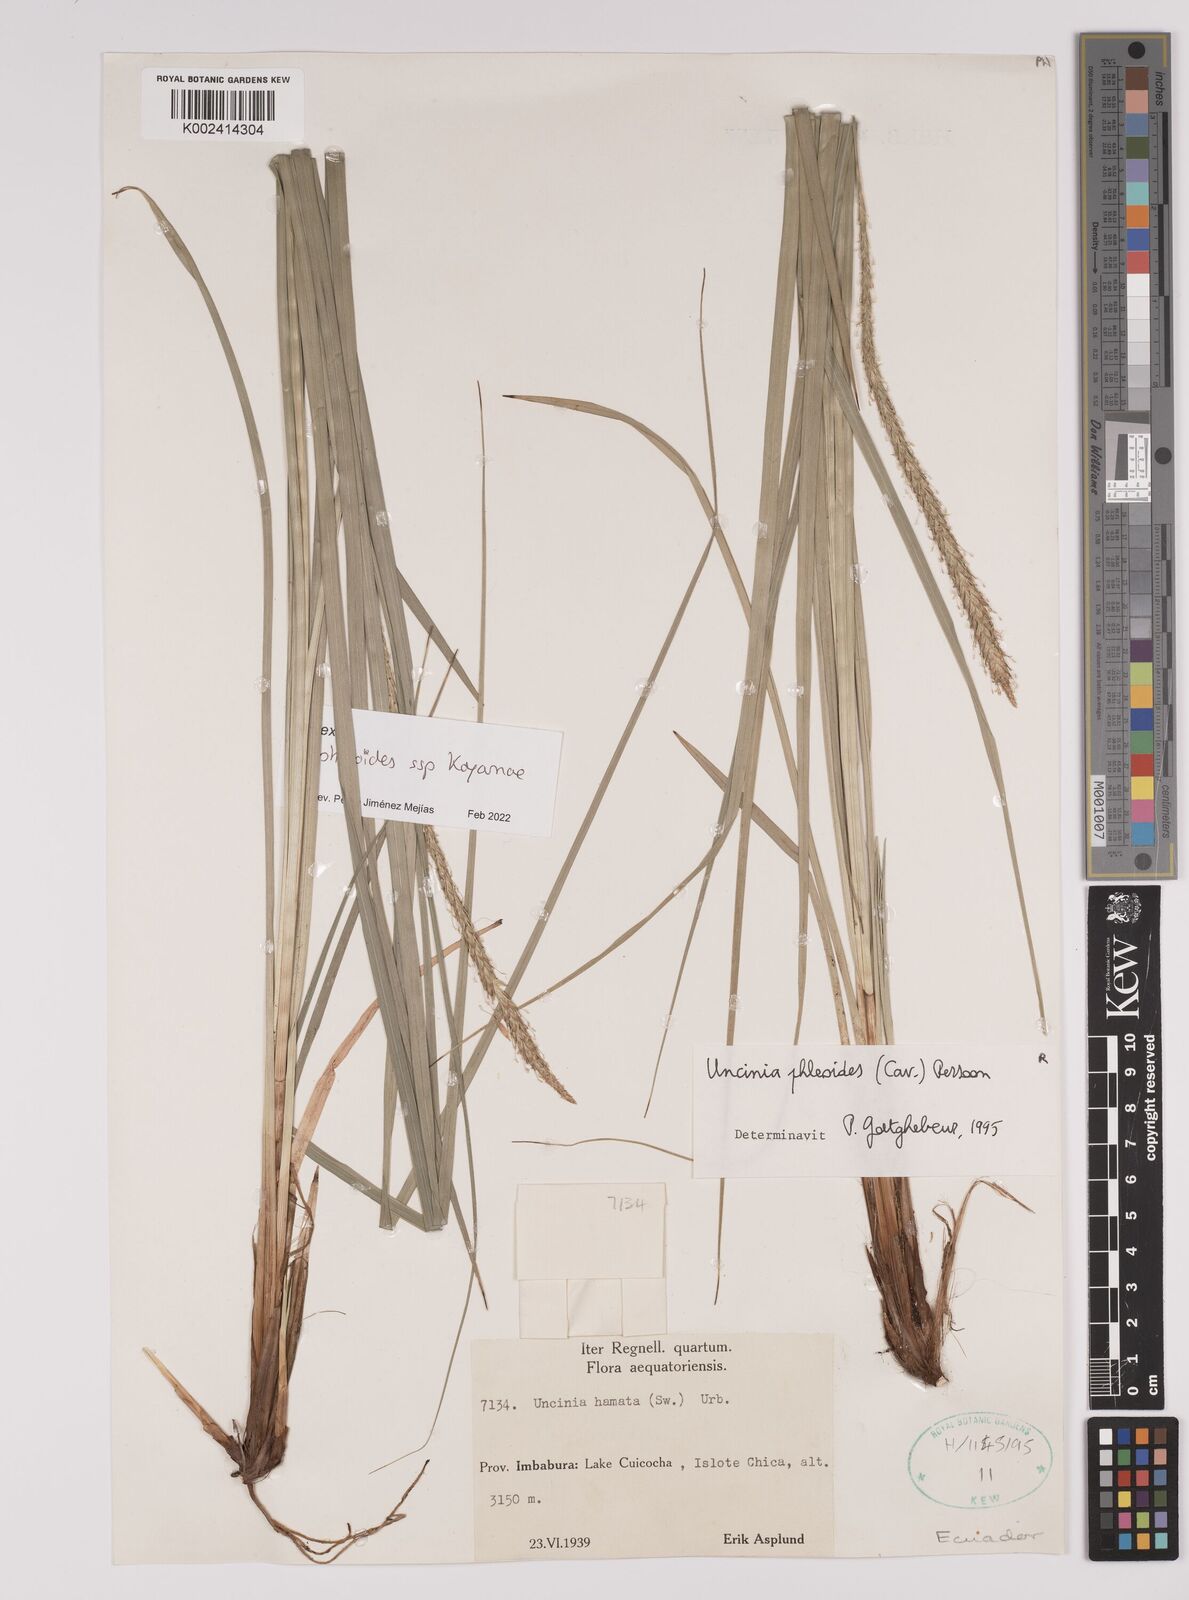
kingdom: Plantae
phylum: Tracheophyta
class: Liliopsida
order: Poales
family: Cyperaceae
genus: Carex
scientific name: Carex phleoides
